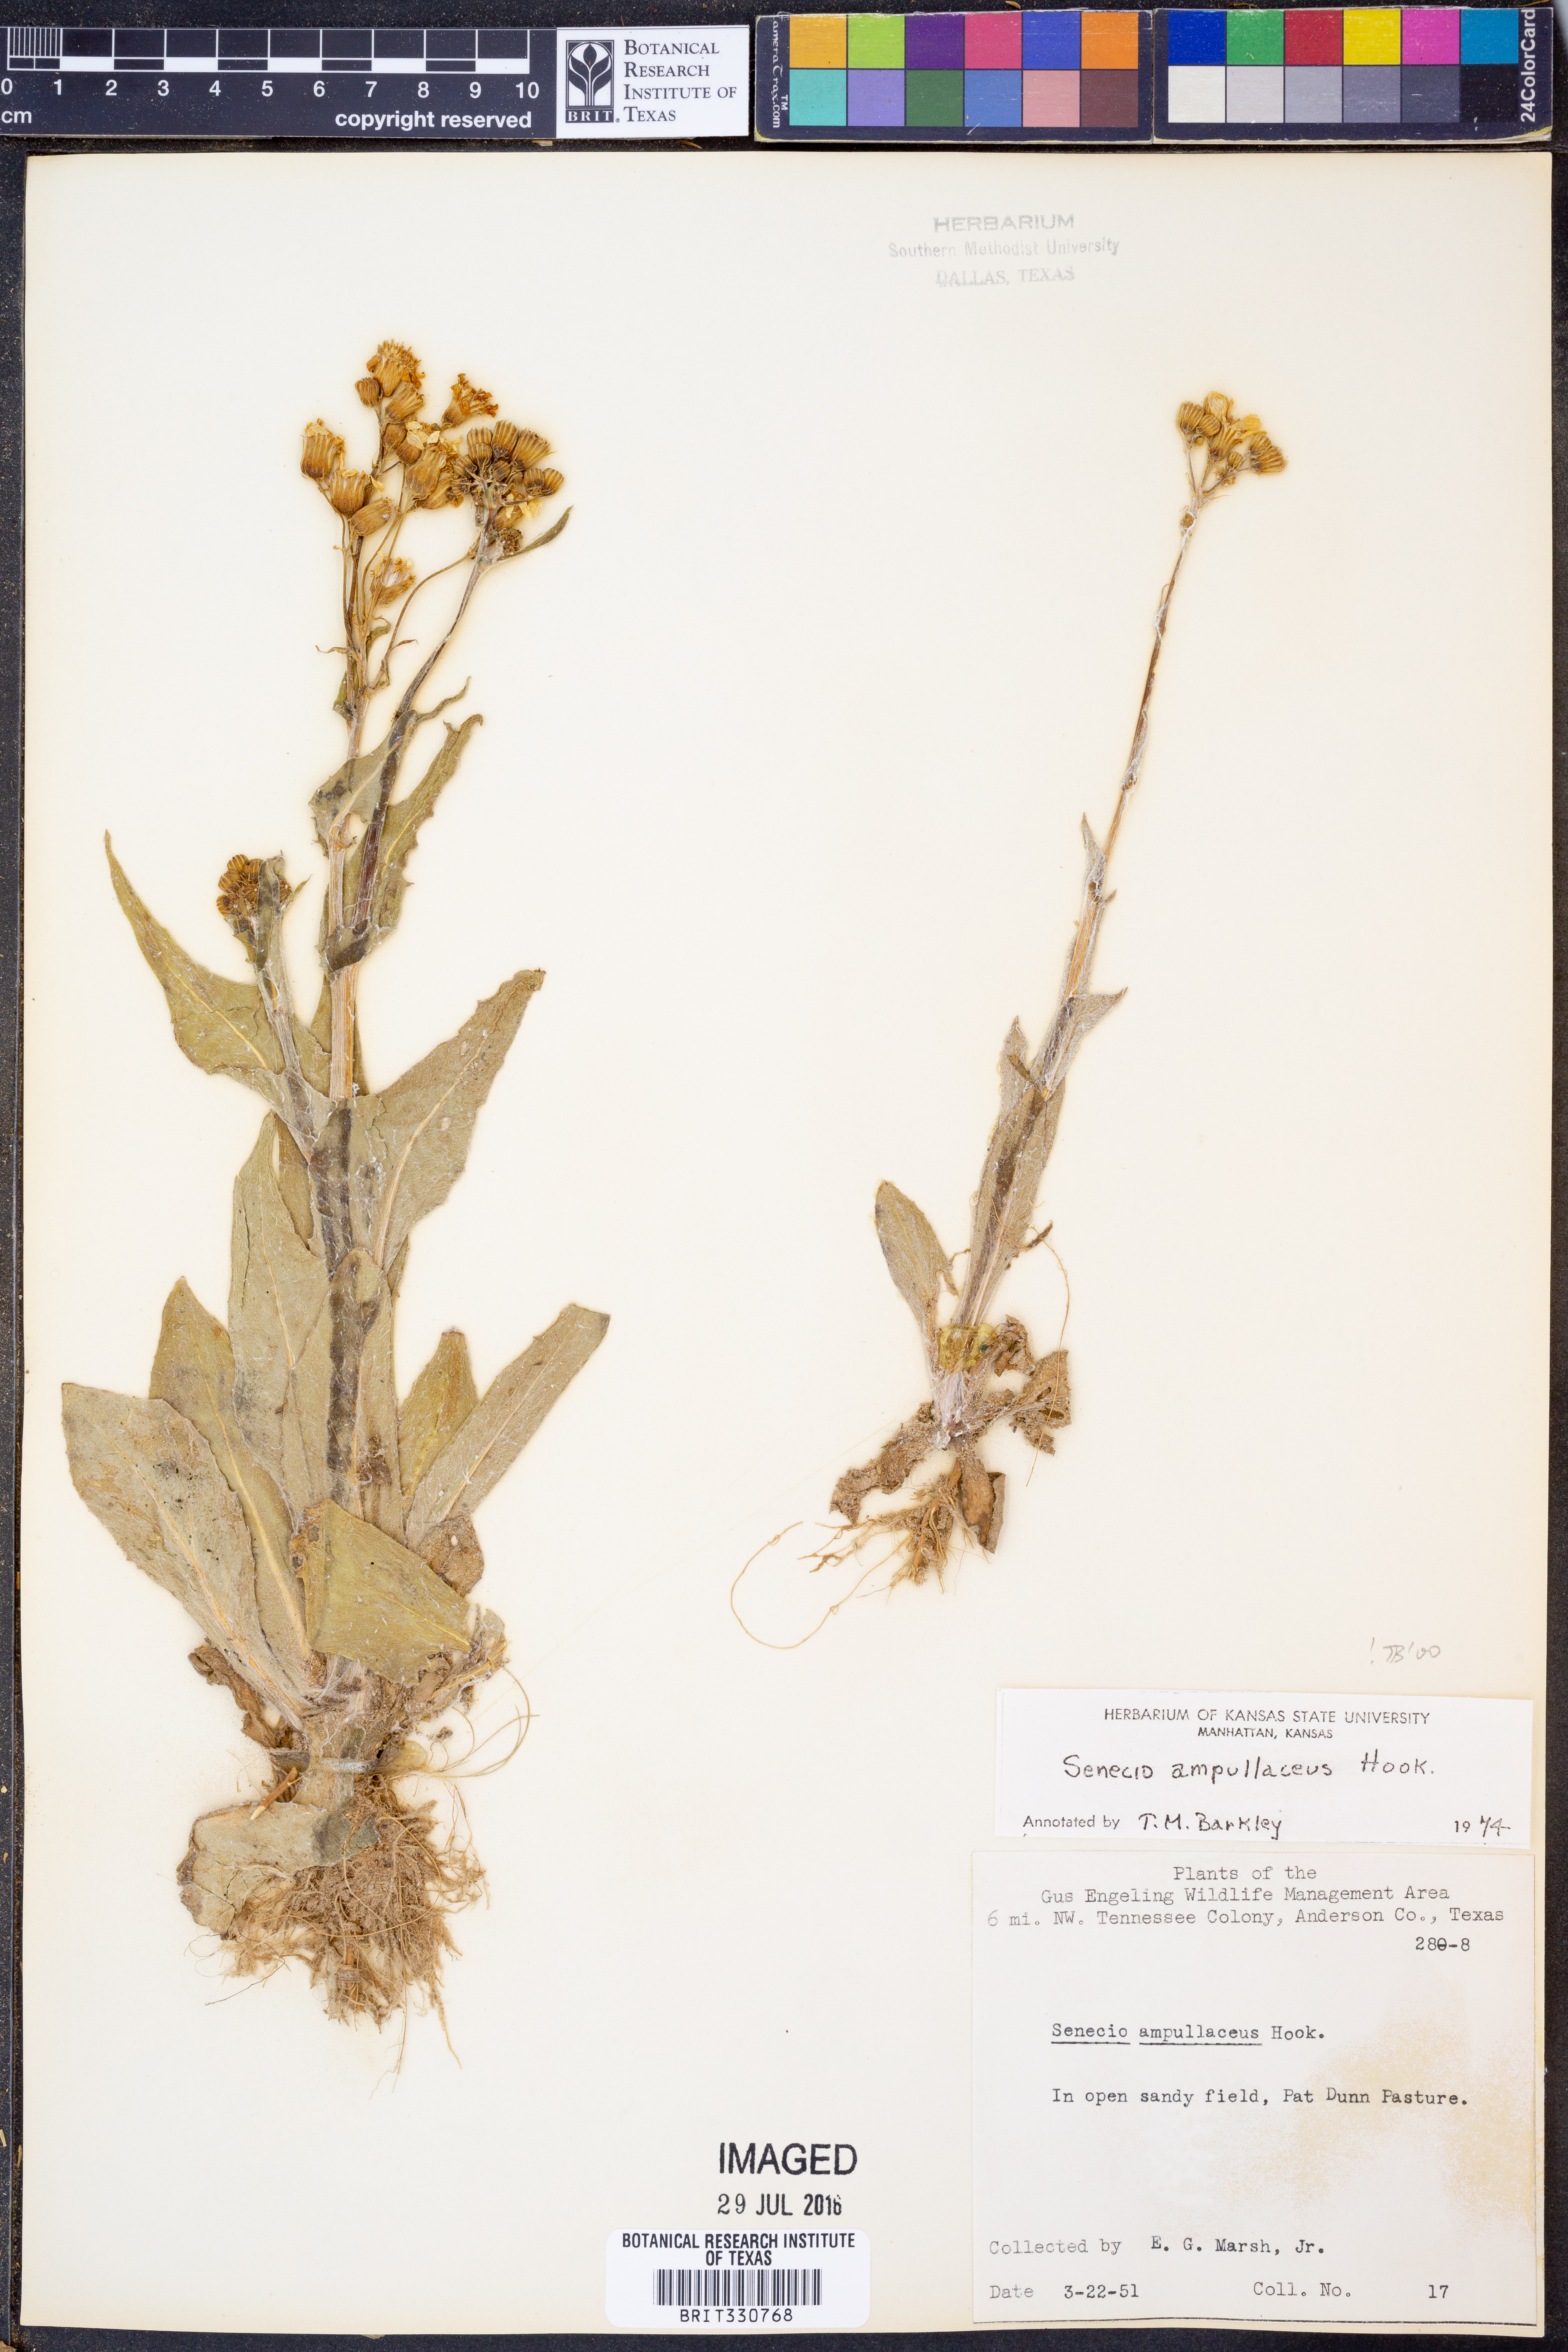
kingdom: Plantae
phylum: Tracheophyta
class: Magnoliopsida
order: Asterales
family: Asteraceae
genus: Senecio
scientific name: Senecio ampullaceus
